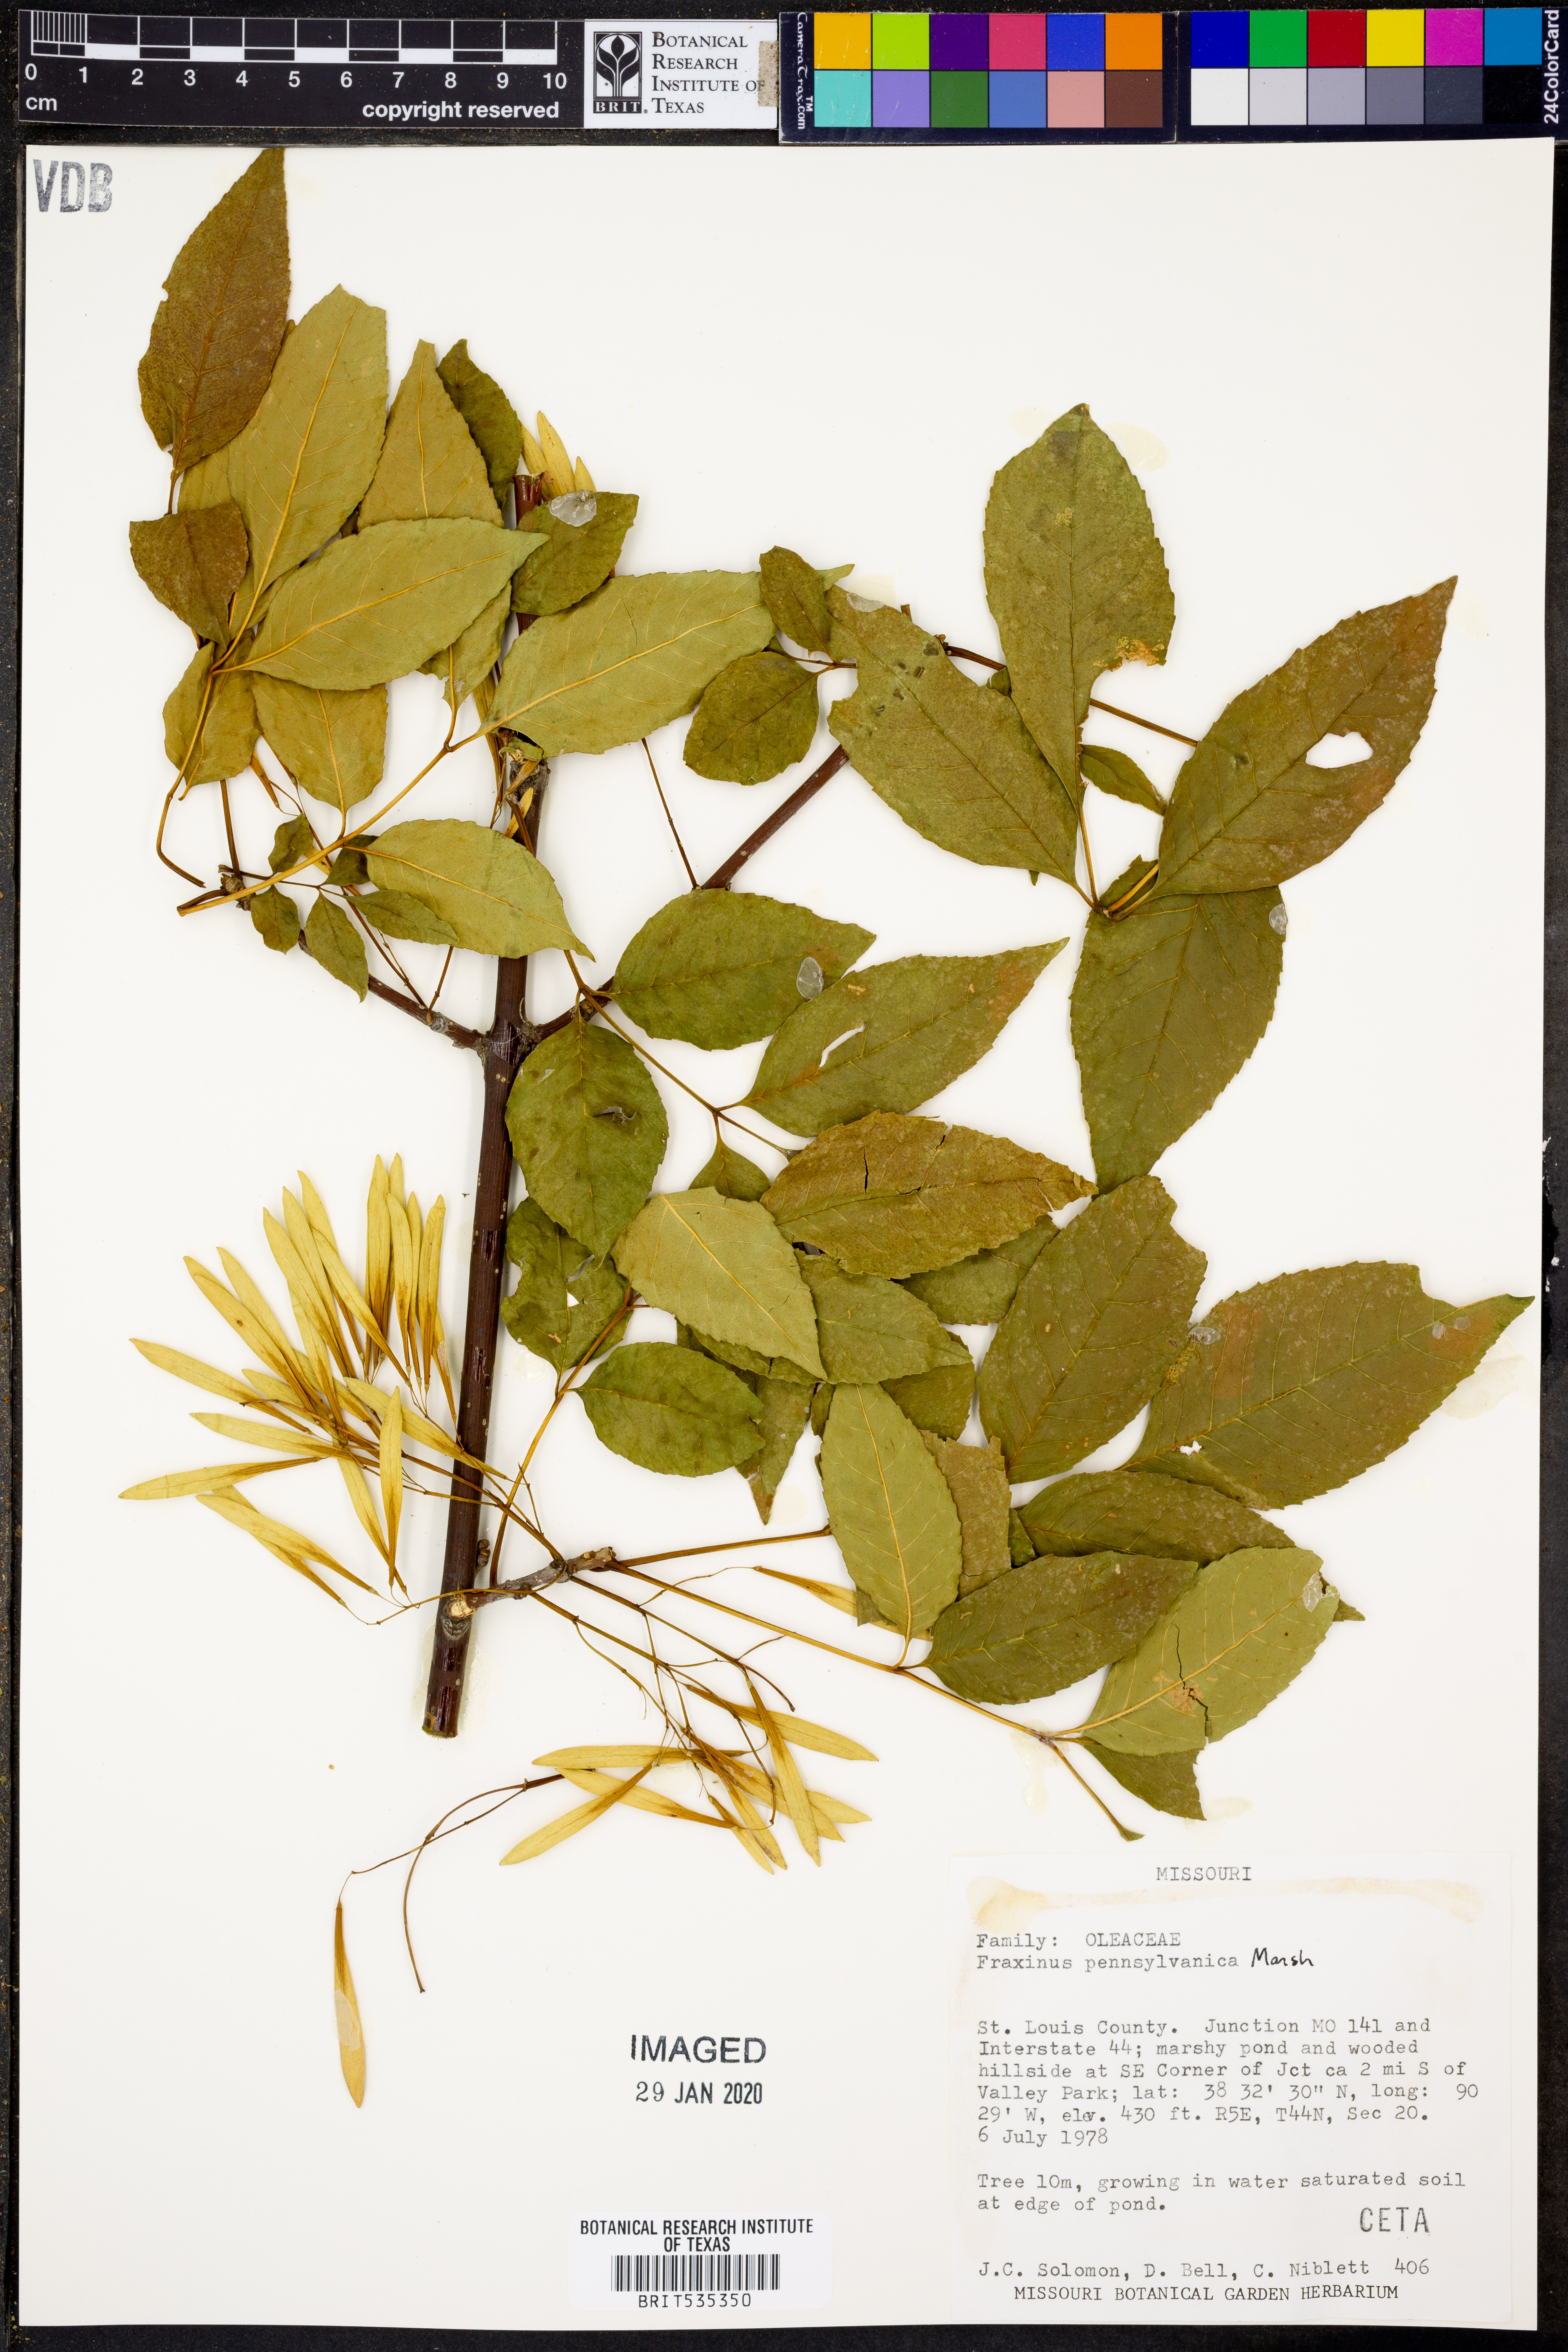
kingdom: Plantae
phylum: Tracheophyta
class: Magnoliopsida
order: Lamiales
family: Oleaceae
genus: Fraxinus
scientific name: Fraxinus pennsylvanica
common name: Green ash
